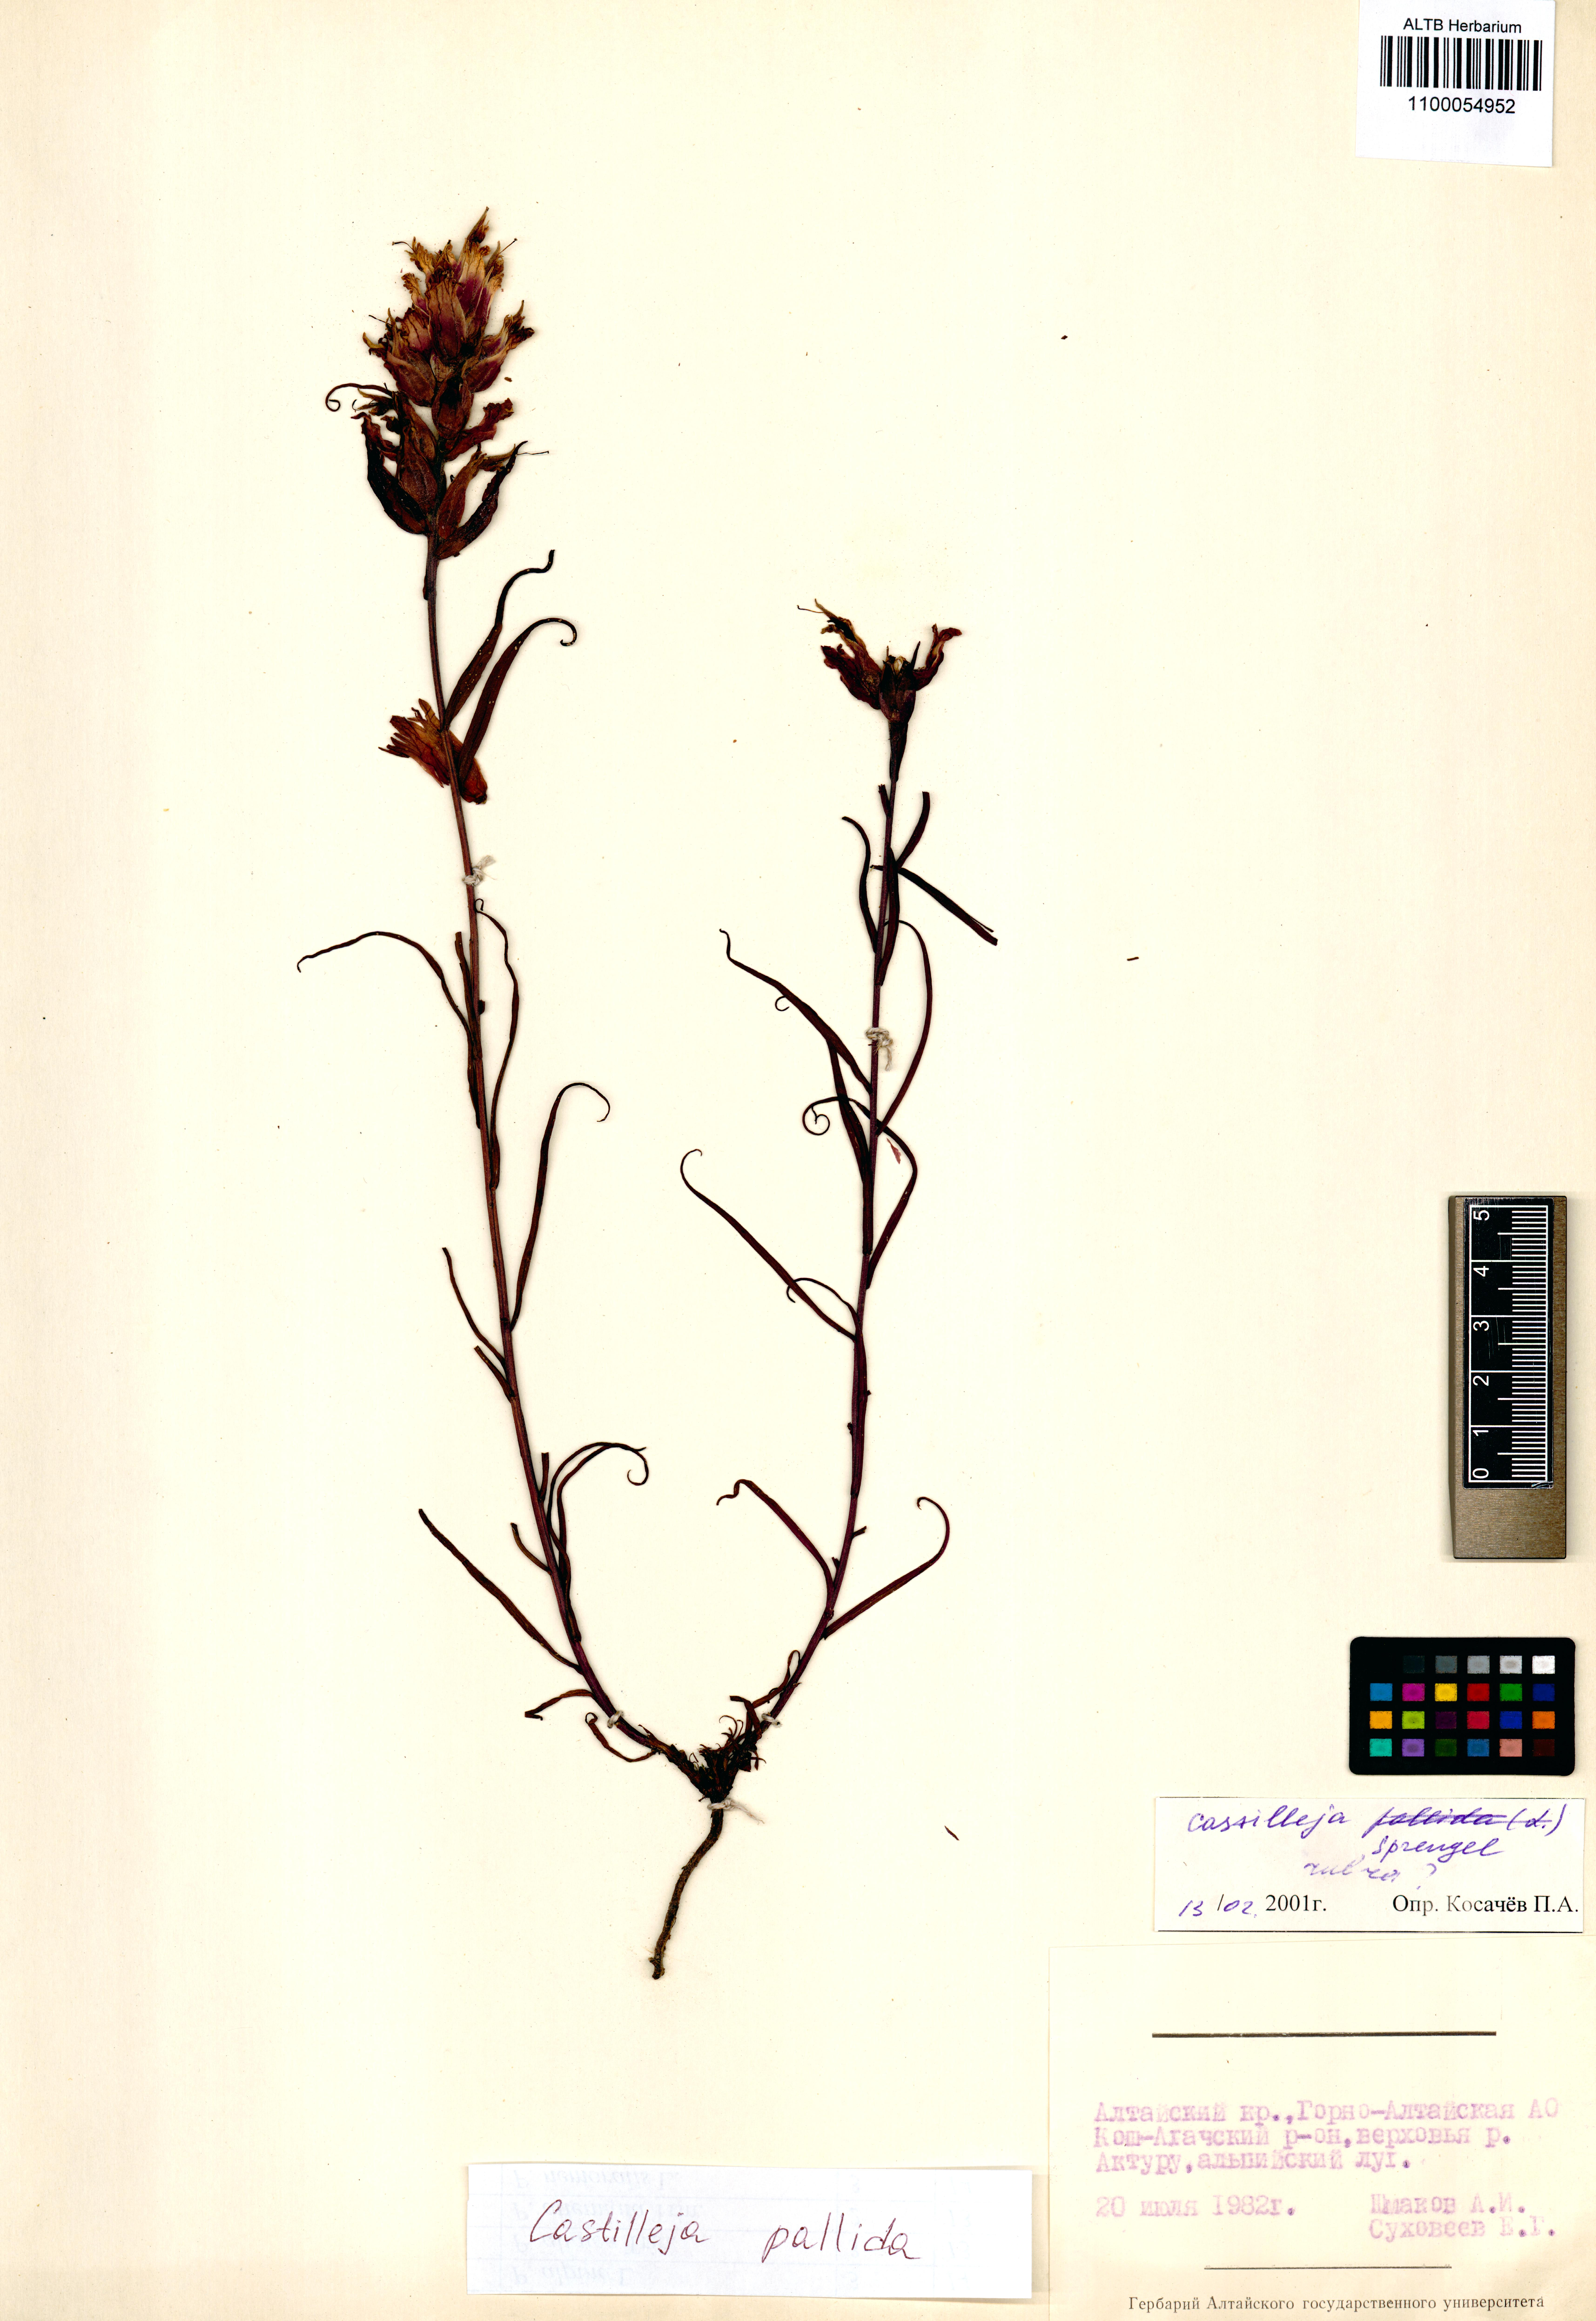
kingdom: Plantae
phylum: Tracheophyta
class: Magnoliopsida
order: Lamiales
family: Orobanchaceae
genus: Castilleja
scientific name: Castilleja pallida
